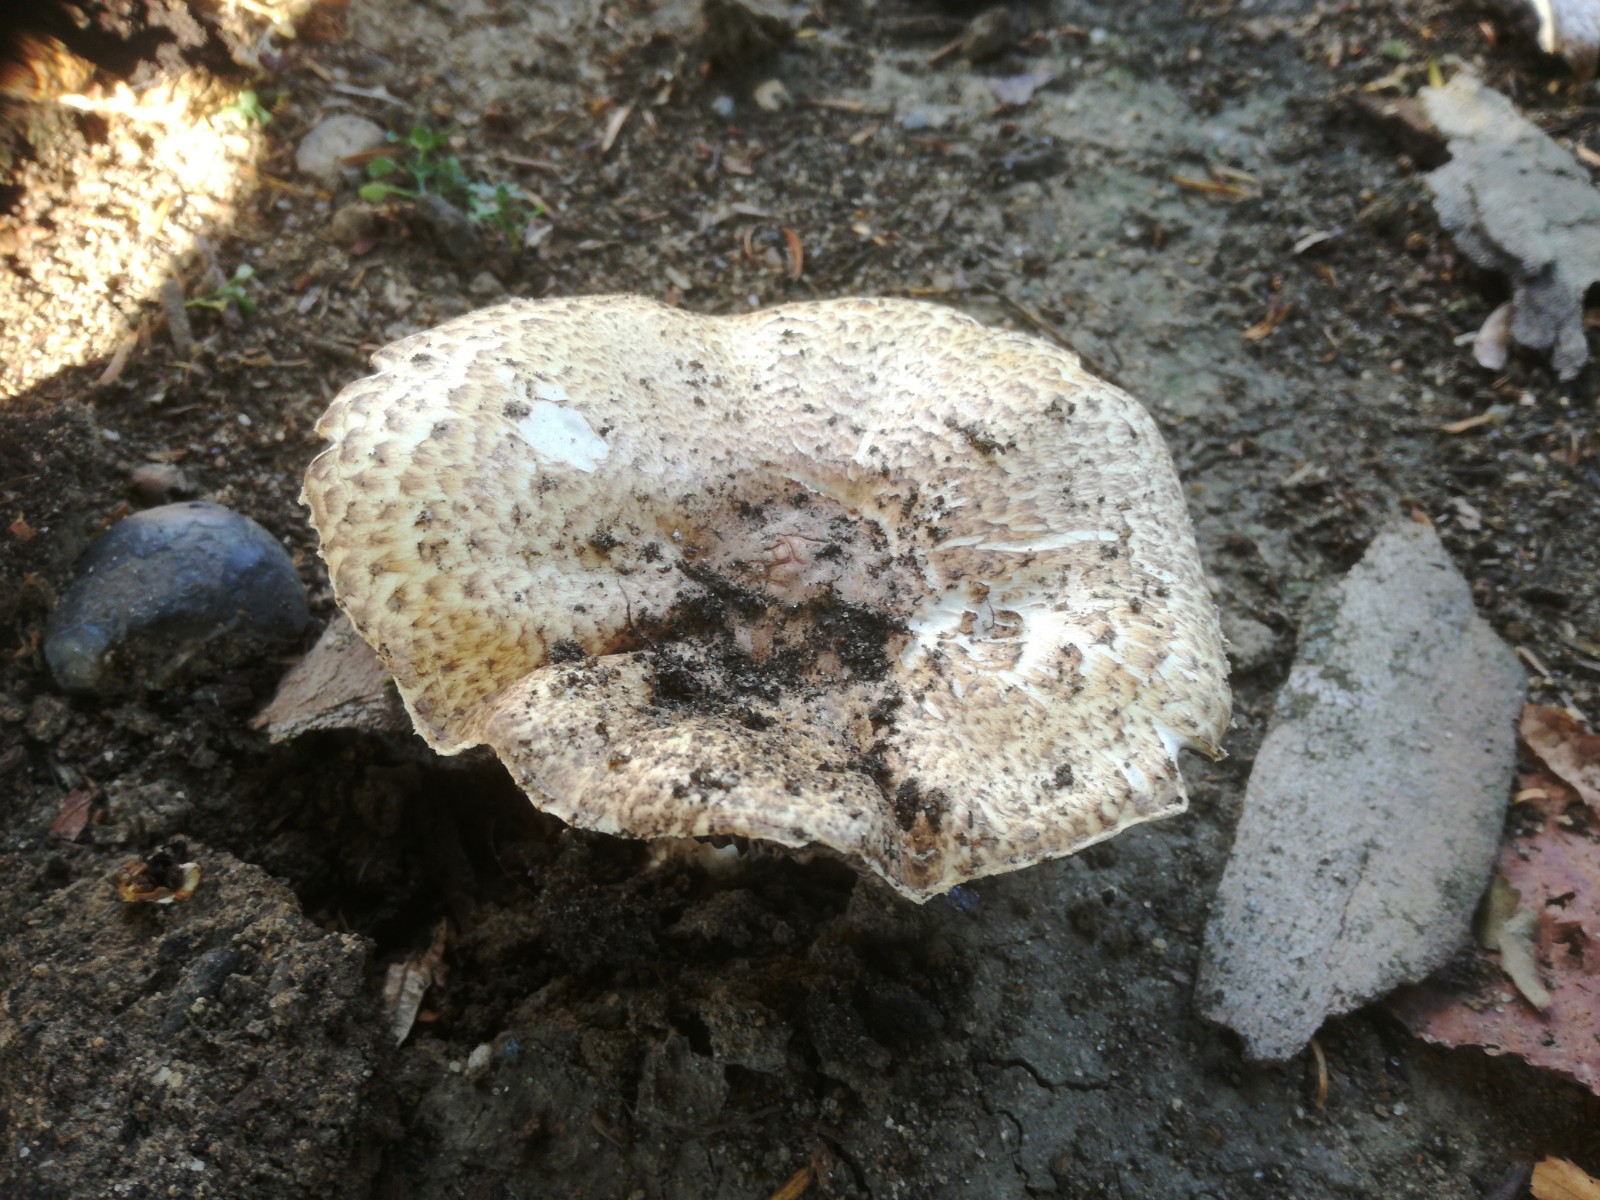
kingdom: Fungi
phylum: Basidiomycota
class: Agaricomycetes
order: Agaricales
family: Agaricaceae
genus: Agaricus
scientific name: Agaricus augustus
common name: prægtig champignon
